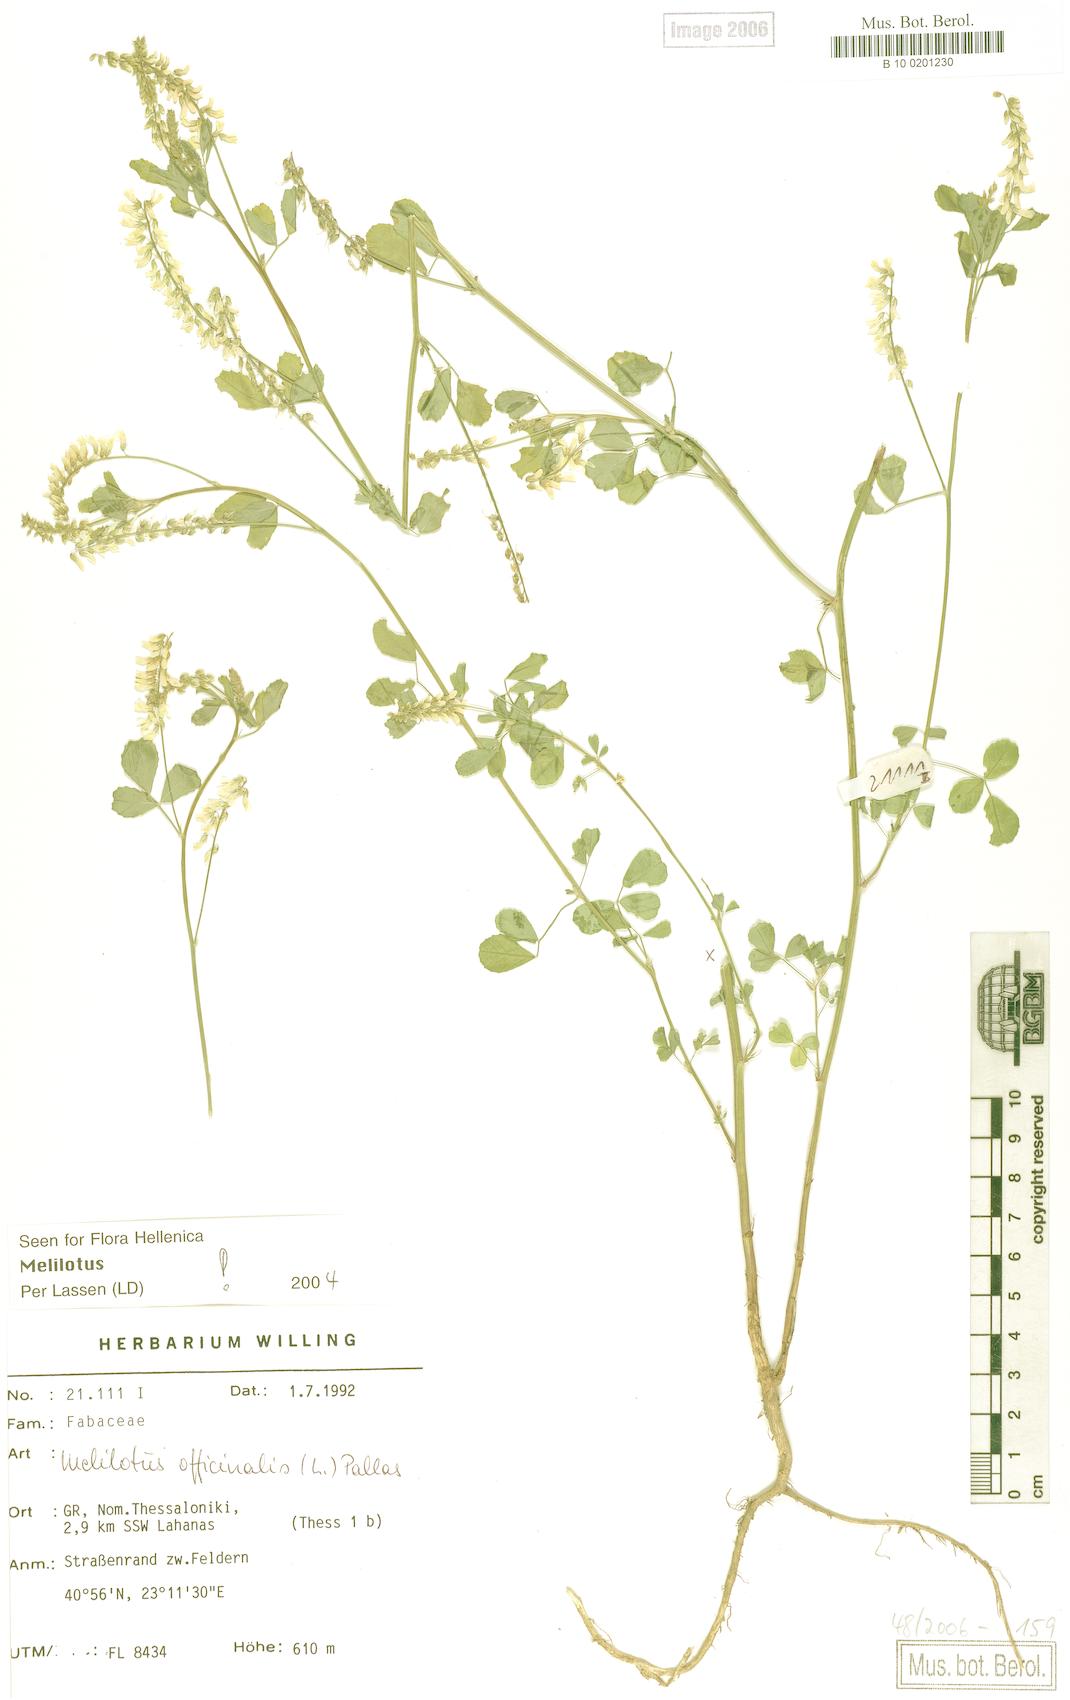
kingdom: Plantae
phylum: Tracheophyta
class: Magnoliopsida
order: Fabales
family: Fabaceae
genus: Melilotus
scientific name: Melilotus officinalis
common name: Sweetclover
